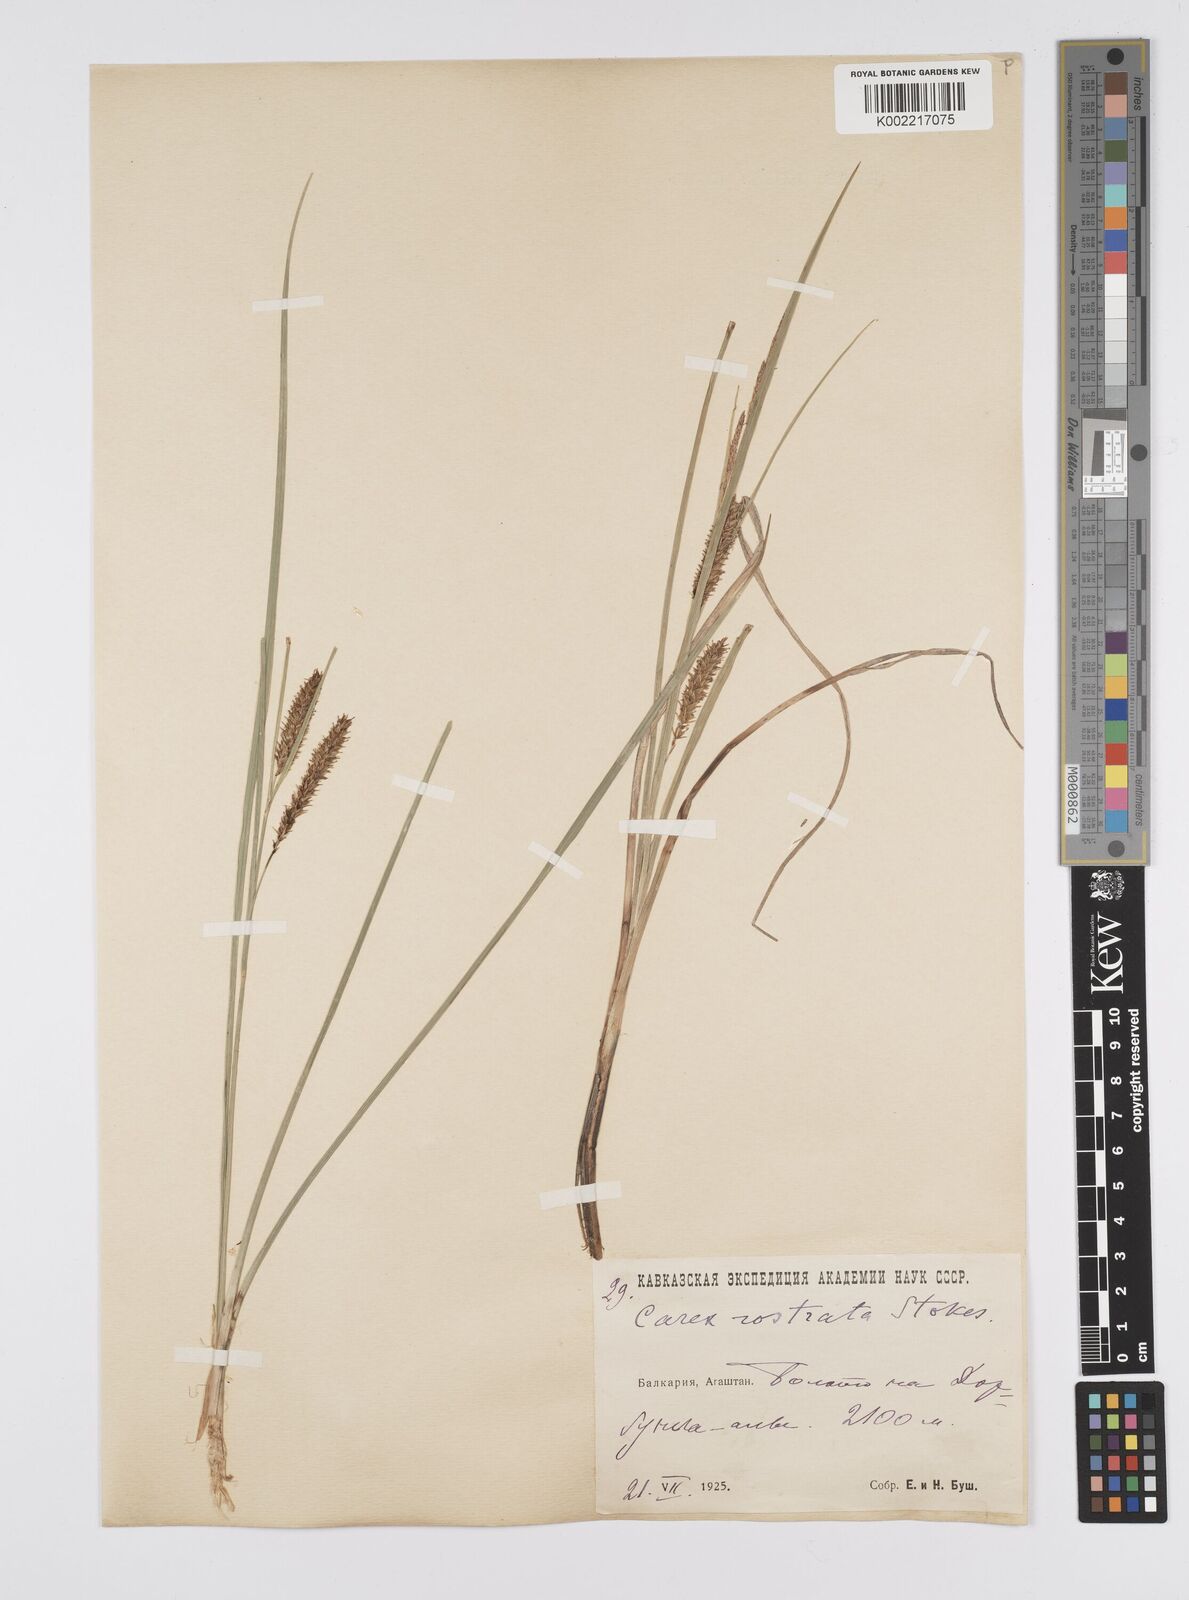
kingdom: Plantae
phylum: Tracheophyta
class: Liliopsida
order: Poales
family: Cyperaceae
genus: Carex
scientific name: Carex rostrata
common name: Bottle sedge
